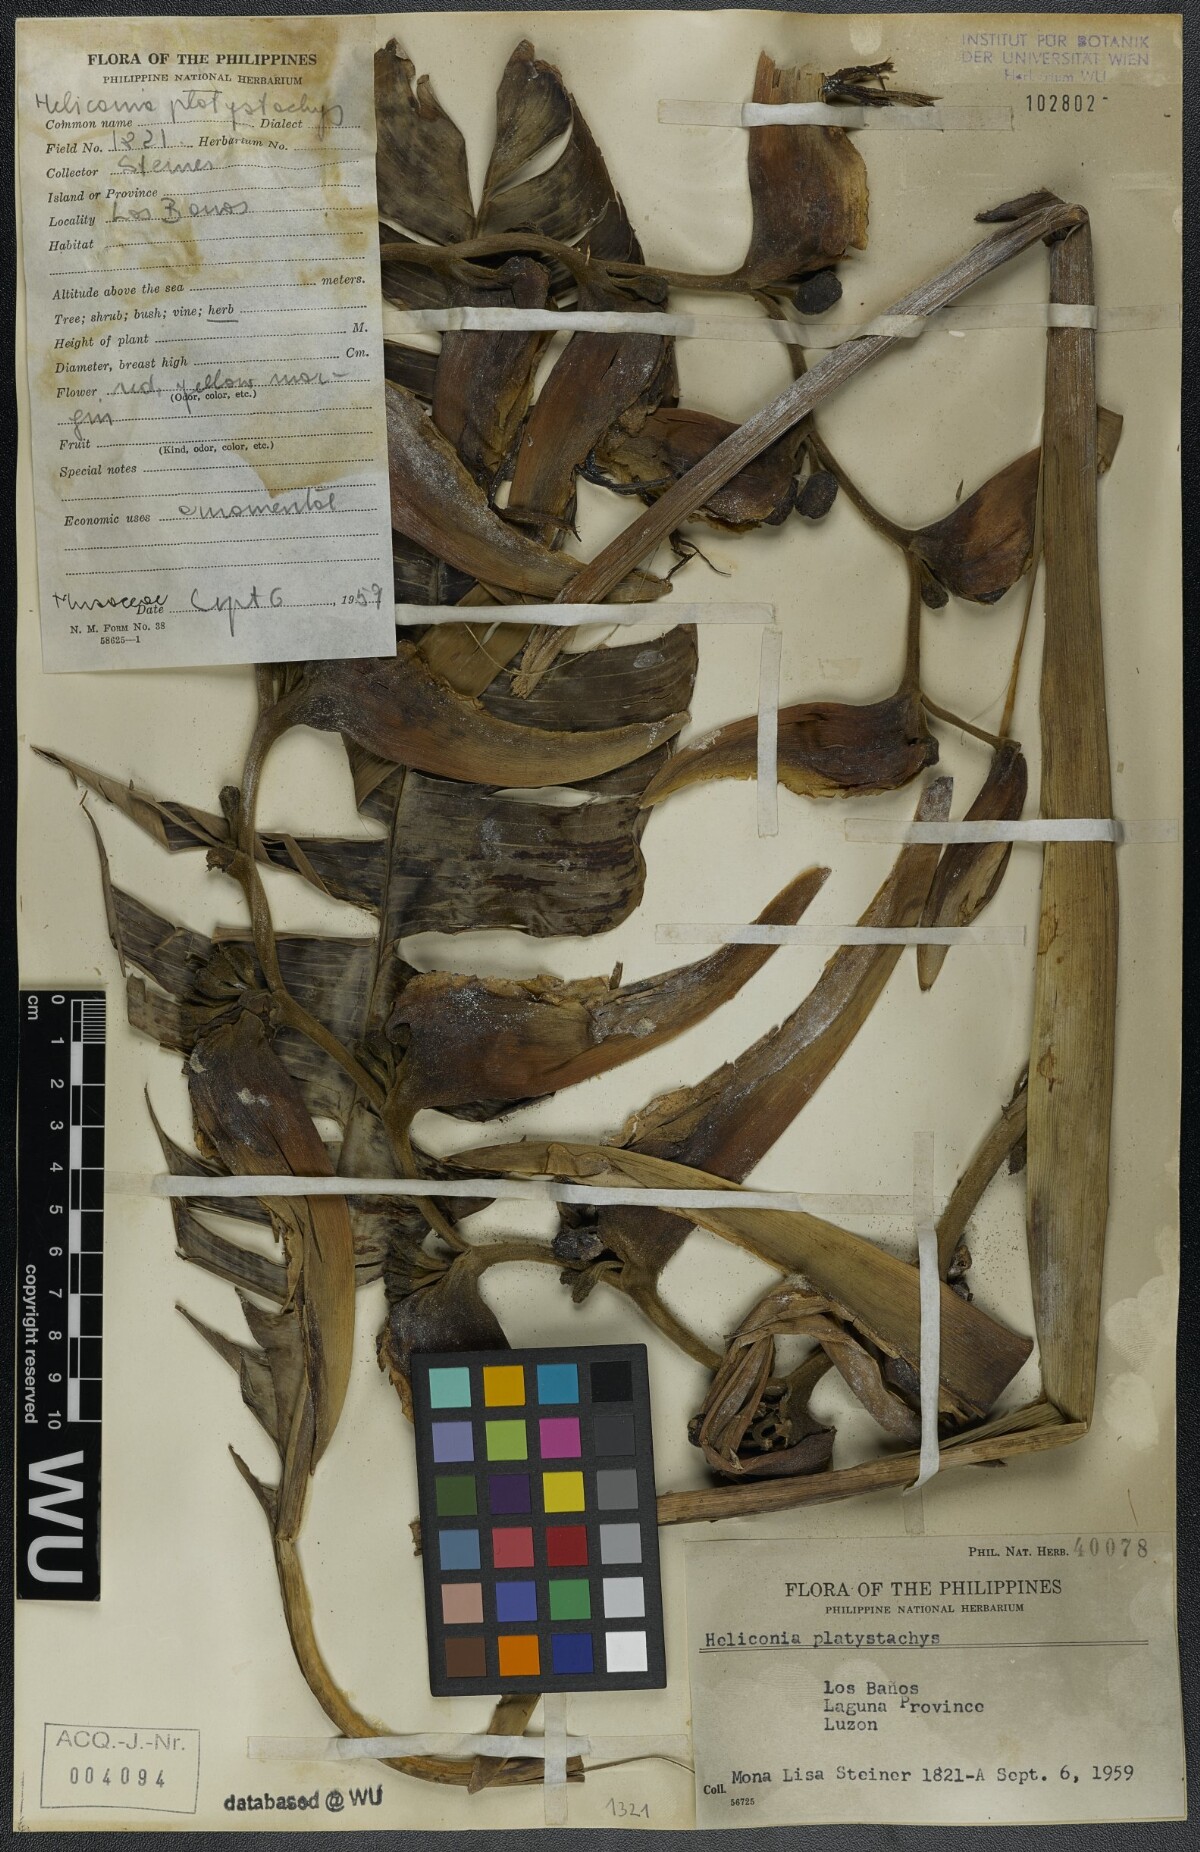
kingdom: Plantae
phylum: Tracheophyta
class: Liliopsida
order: Zingiberales
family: Heliconiaceae
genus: Heliconia
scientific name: Heliconia platystachys
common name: False bird of paradise
